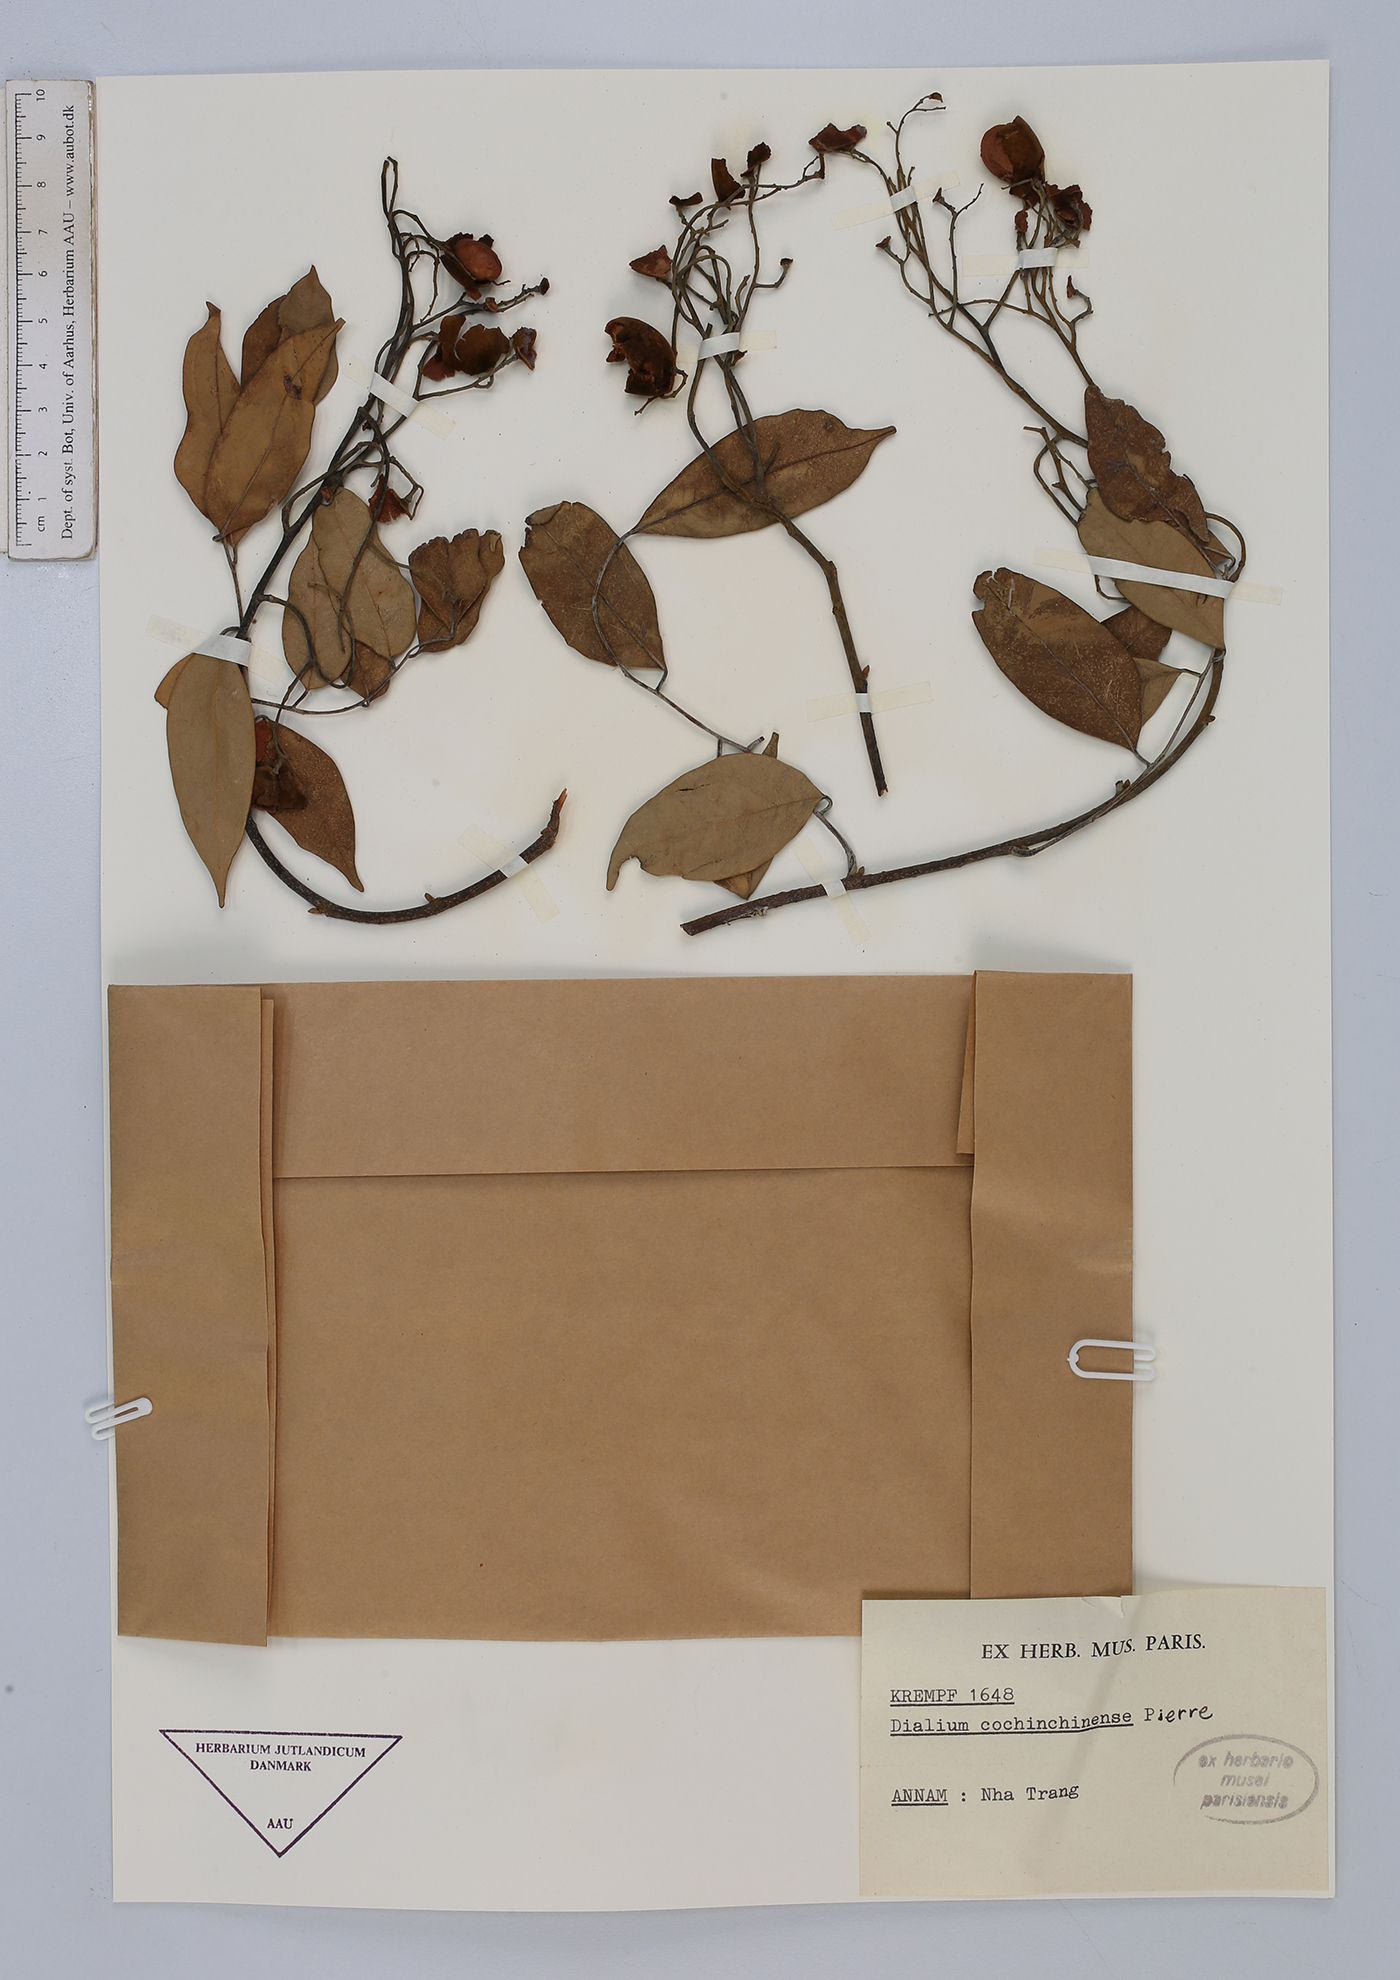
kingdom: Plantae
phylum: Tracheophyta
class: Magnoliopsida
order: Fabales
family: Fabaceae
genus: Dialium
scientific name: Dialium cochinchinense
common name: Velvet tamarind
